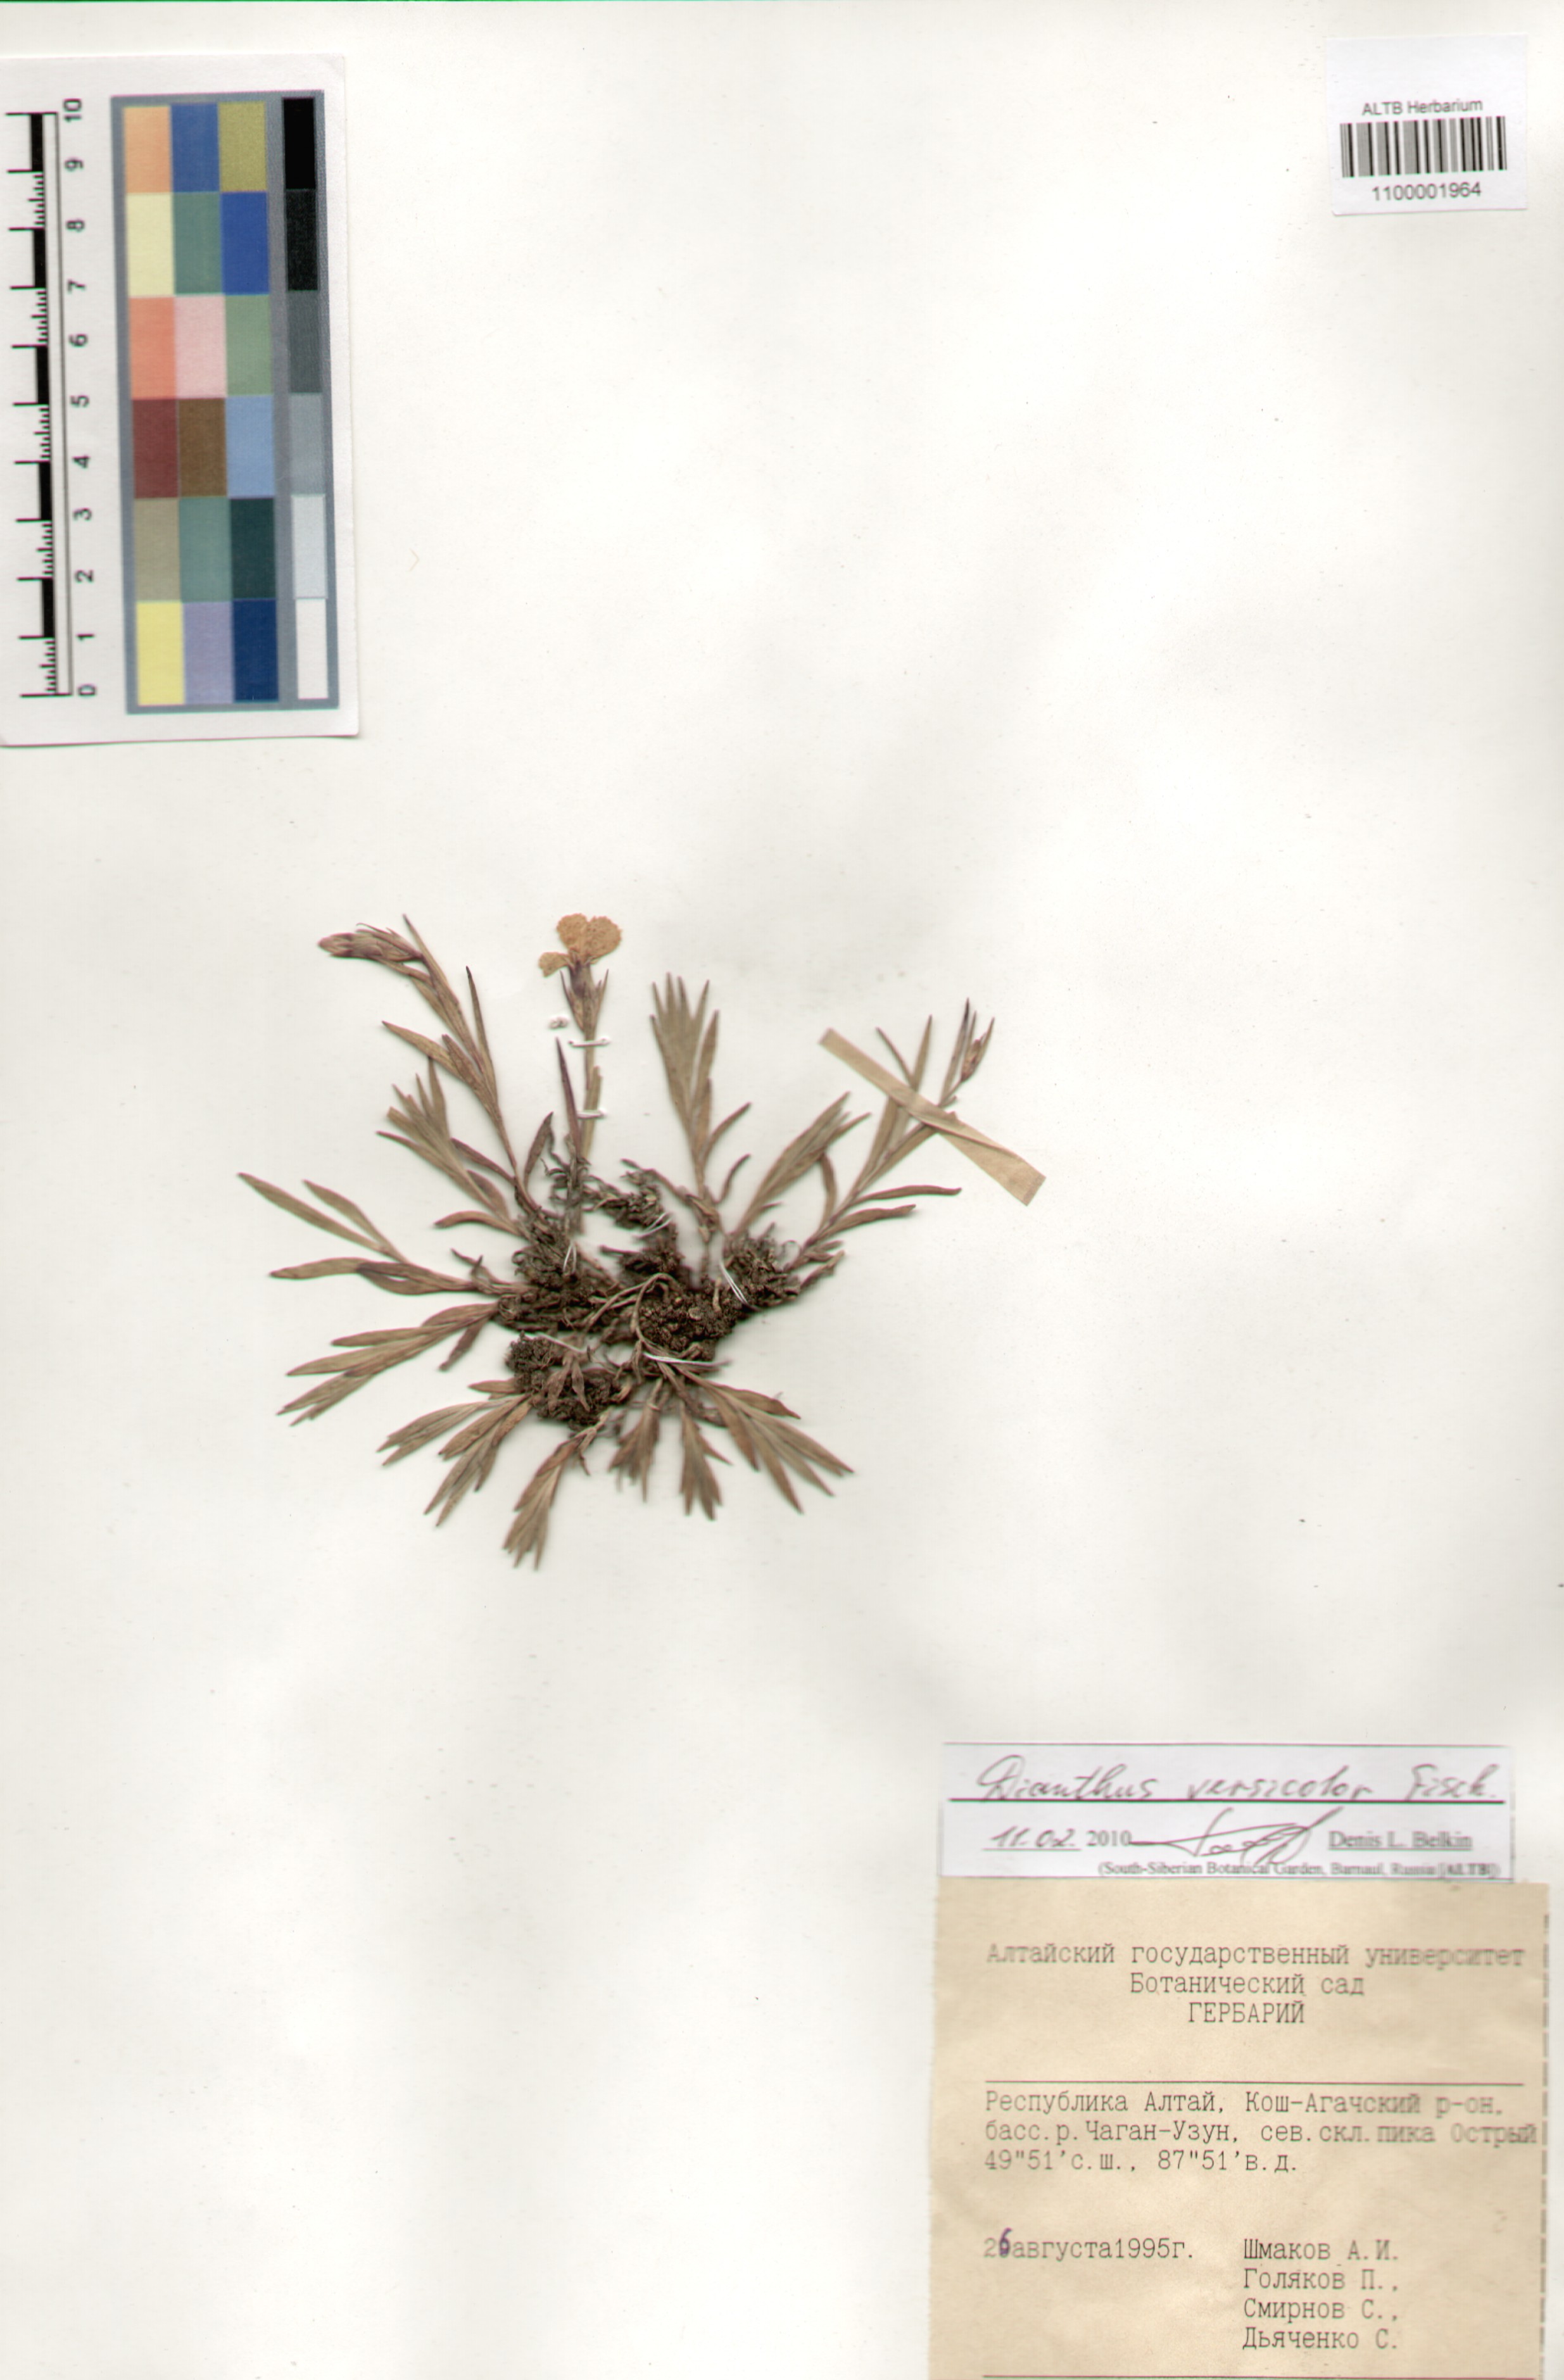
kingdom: Plantae
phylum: Tracheophyta
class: Magnoliopsida
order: Caryophyllales
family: Caryophyllaceae
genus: Dianthus
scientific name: Dianthus chinensis
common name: Rainbow pink
